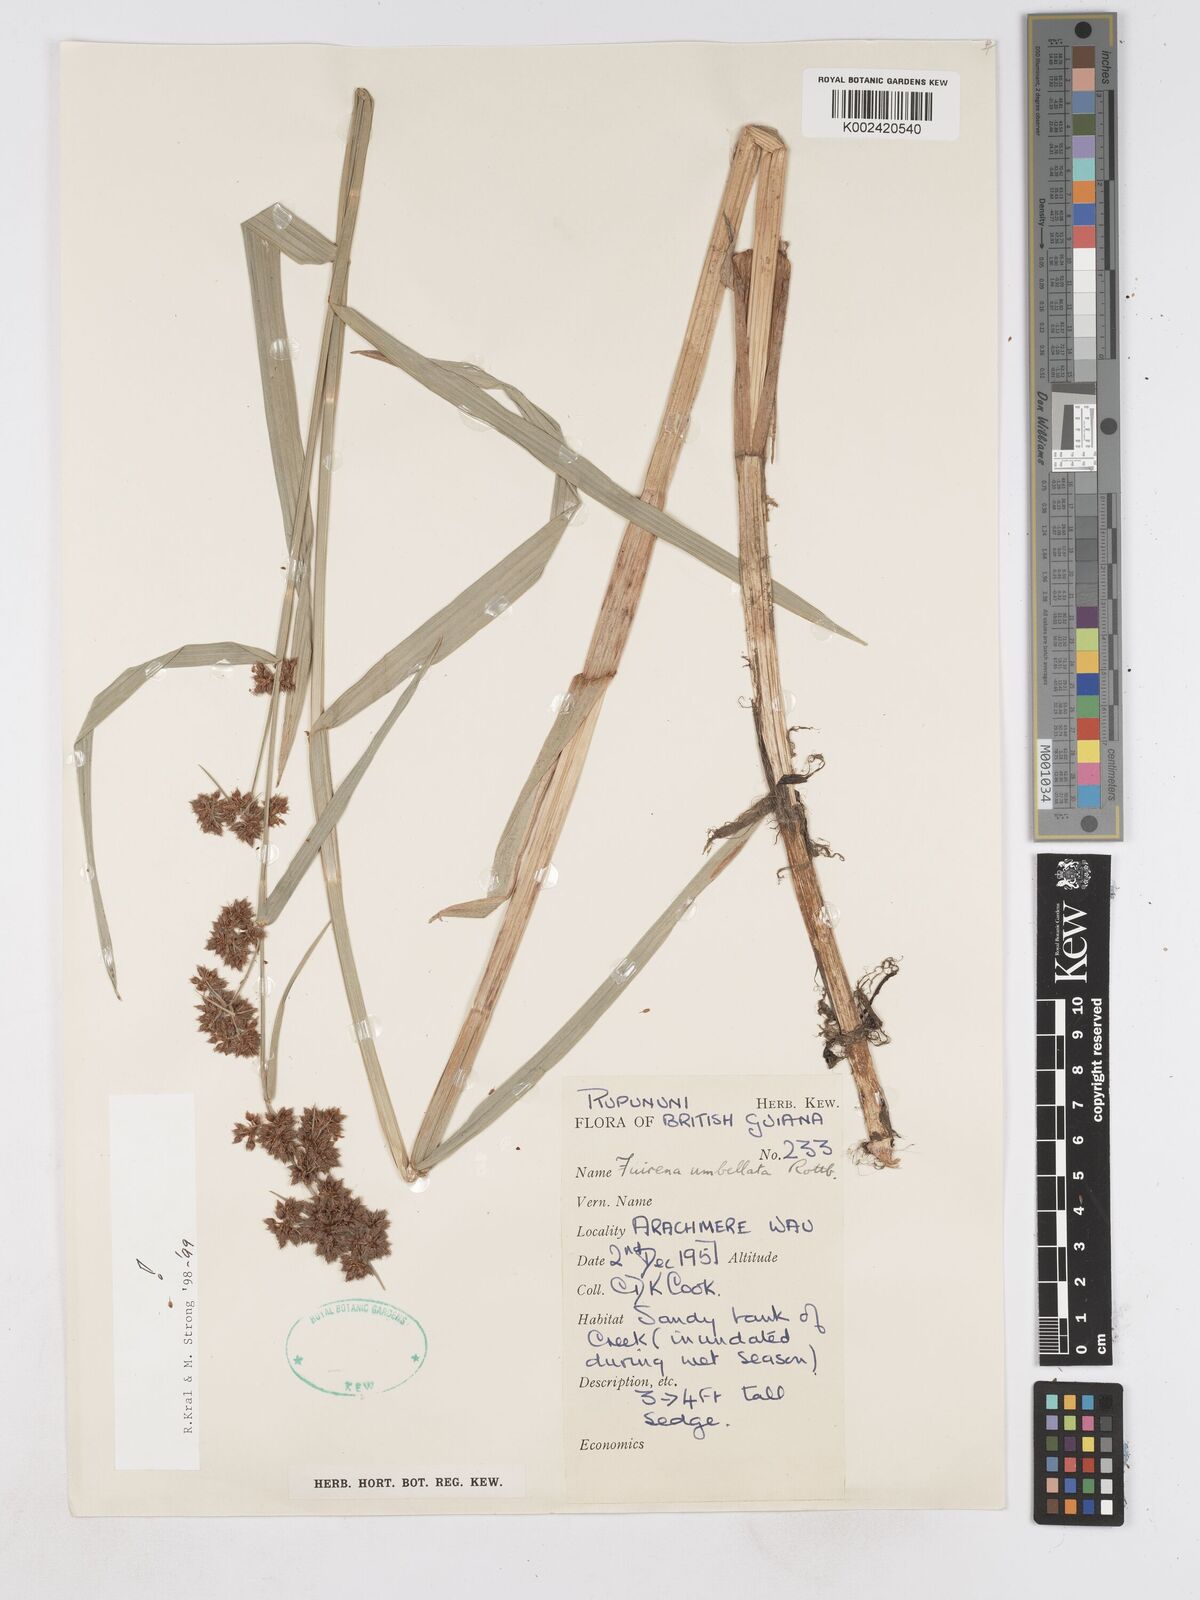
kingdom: Plantae
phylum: Tracheophyta
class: Liliopsida
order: Poales
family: Cyperaceae
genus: Fuirena
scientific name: Fuirena umbellata
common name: Yefen
